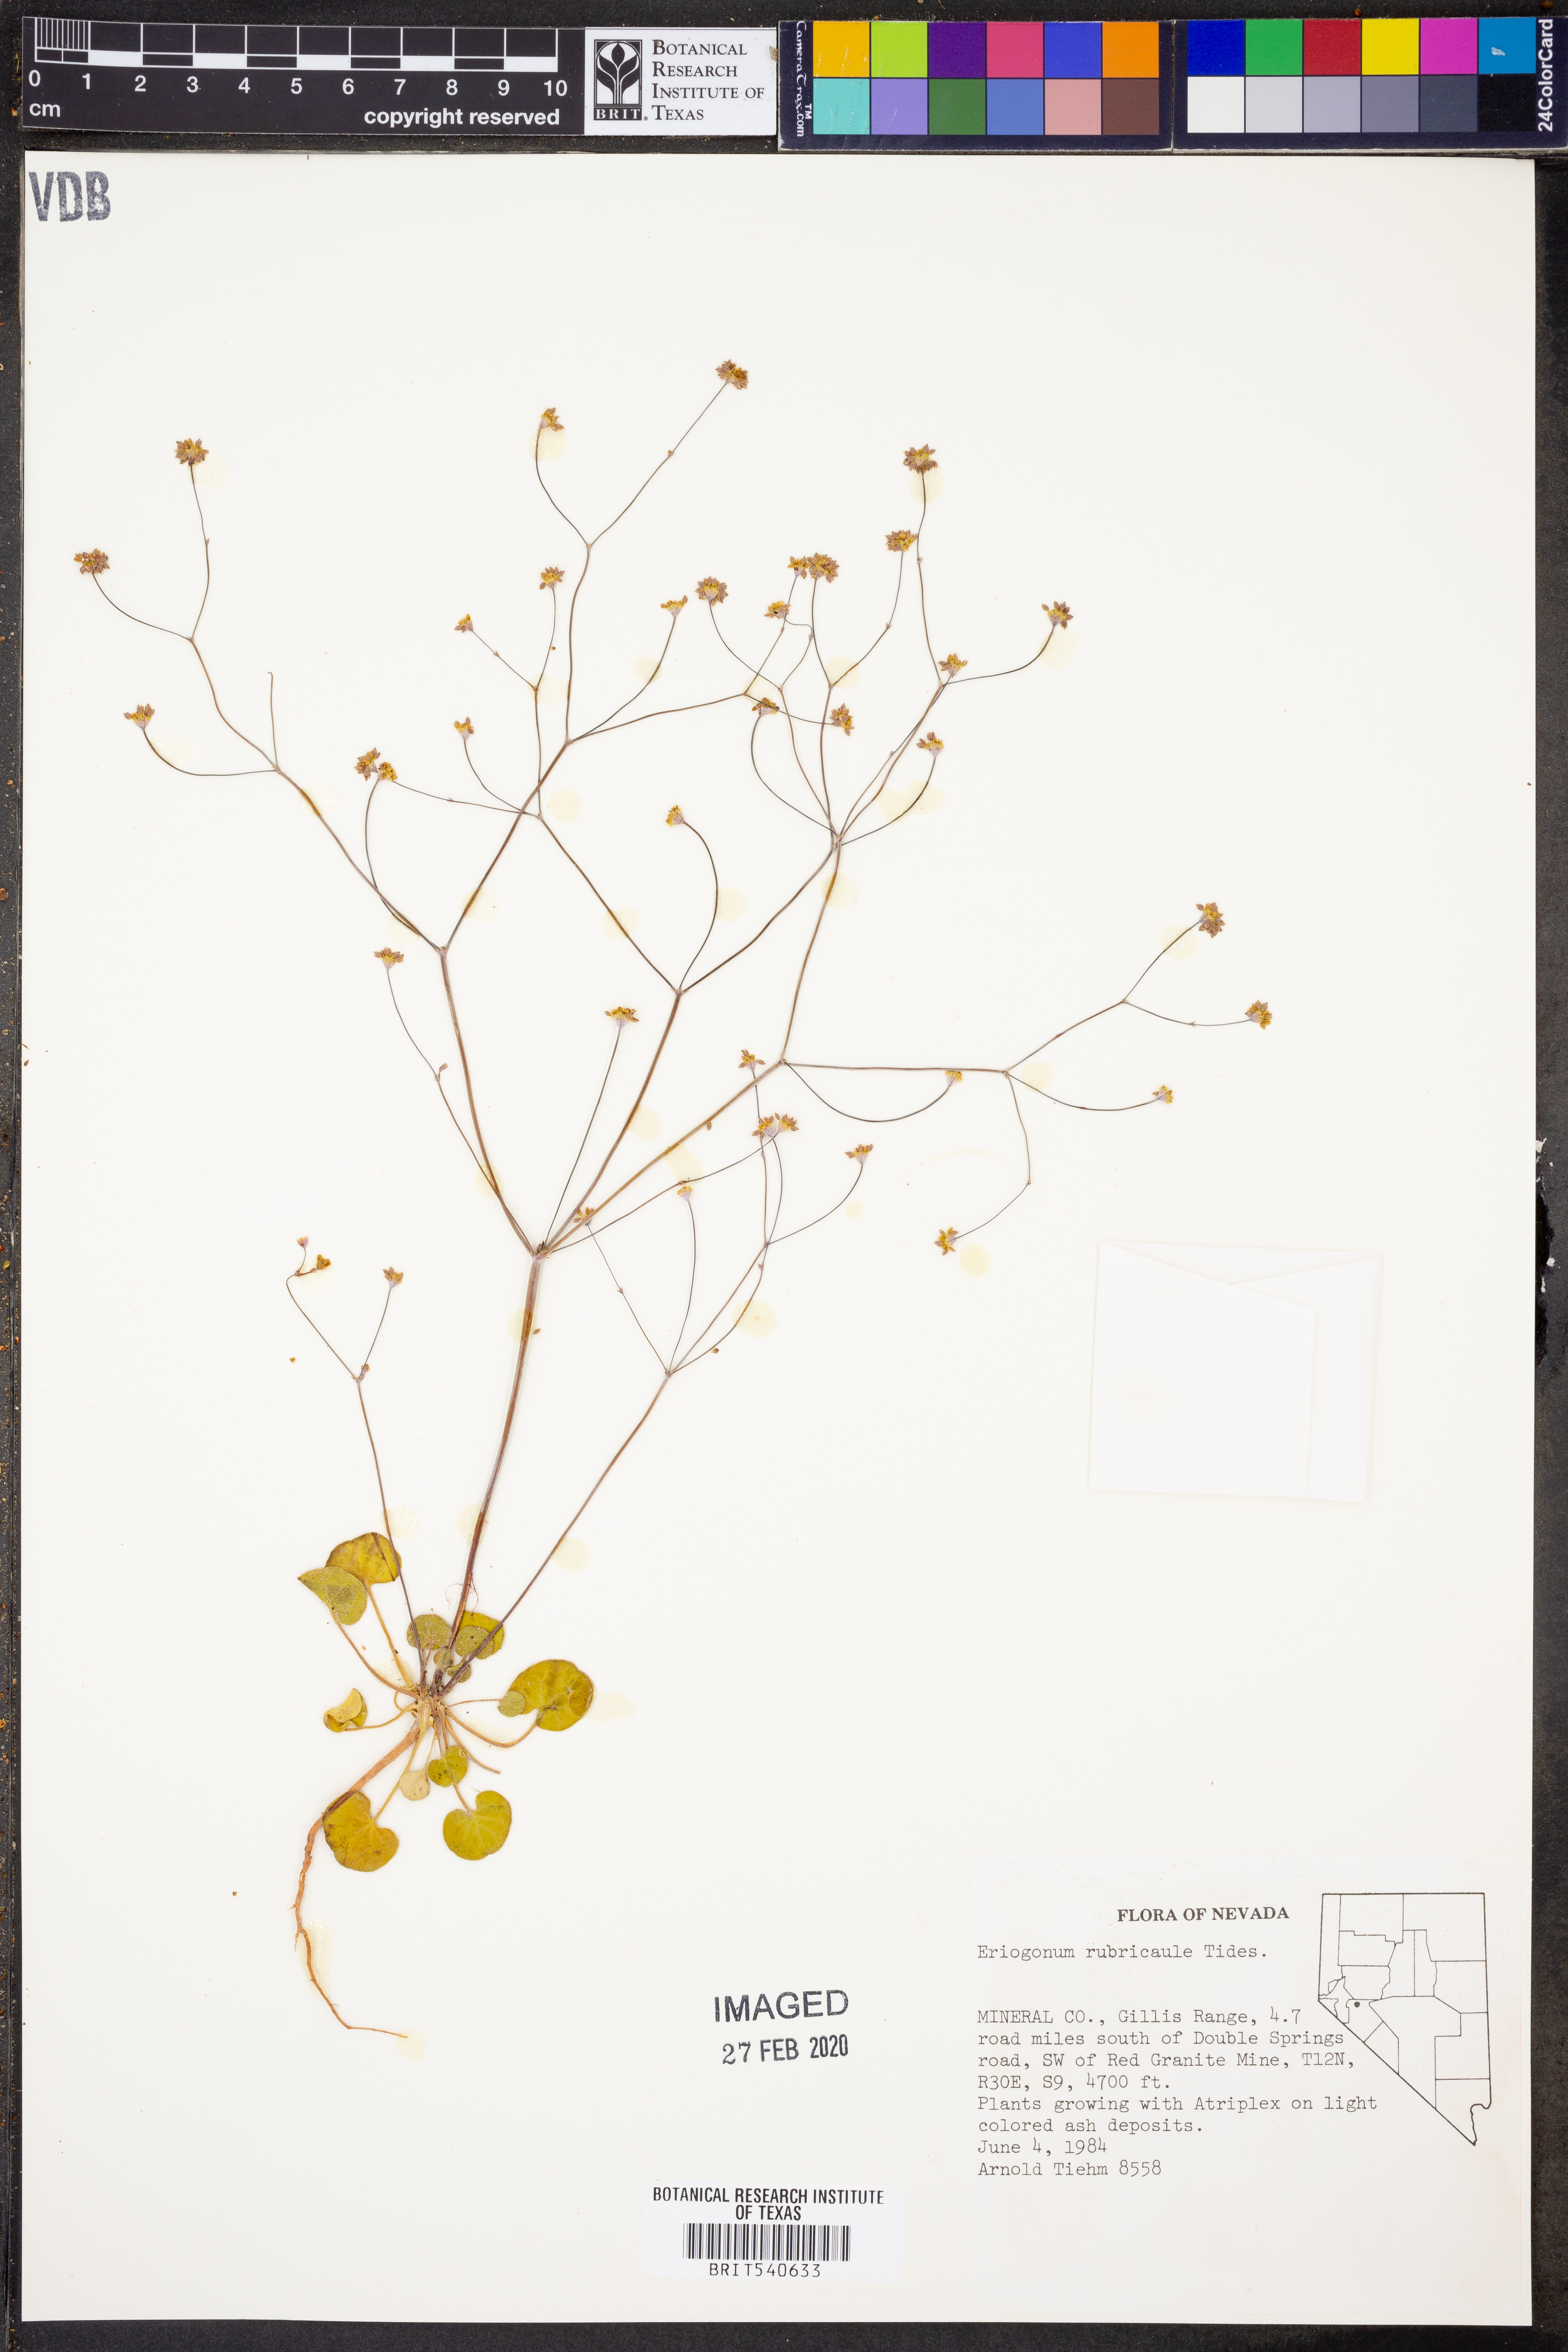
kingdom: Plantae
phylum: Tracheophyta
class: Magnoliopsida
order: Caryophyllales
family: Polygonaceae
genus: Eriogonum
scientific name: Eriogonum rubricaule
